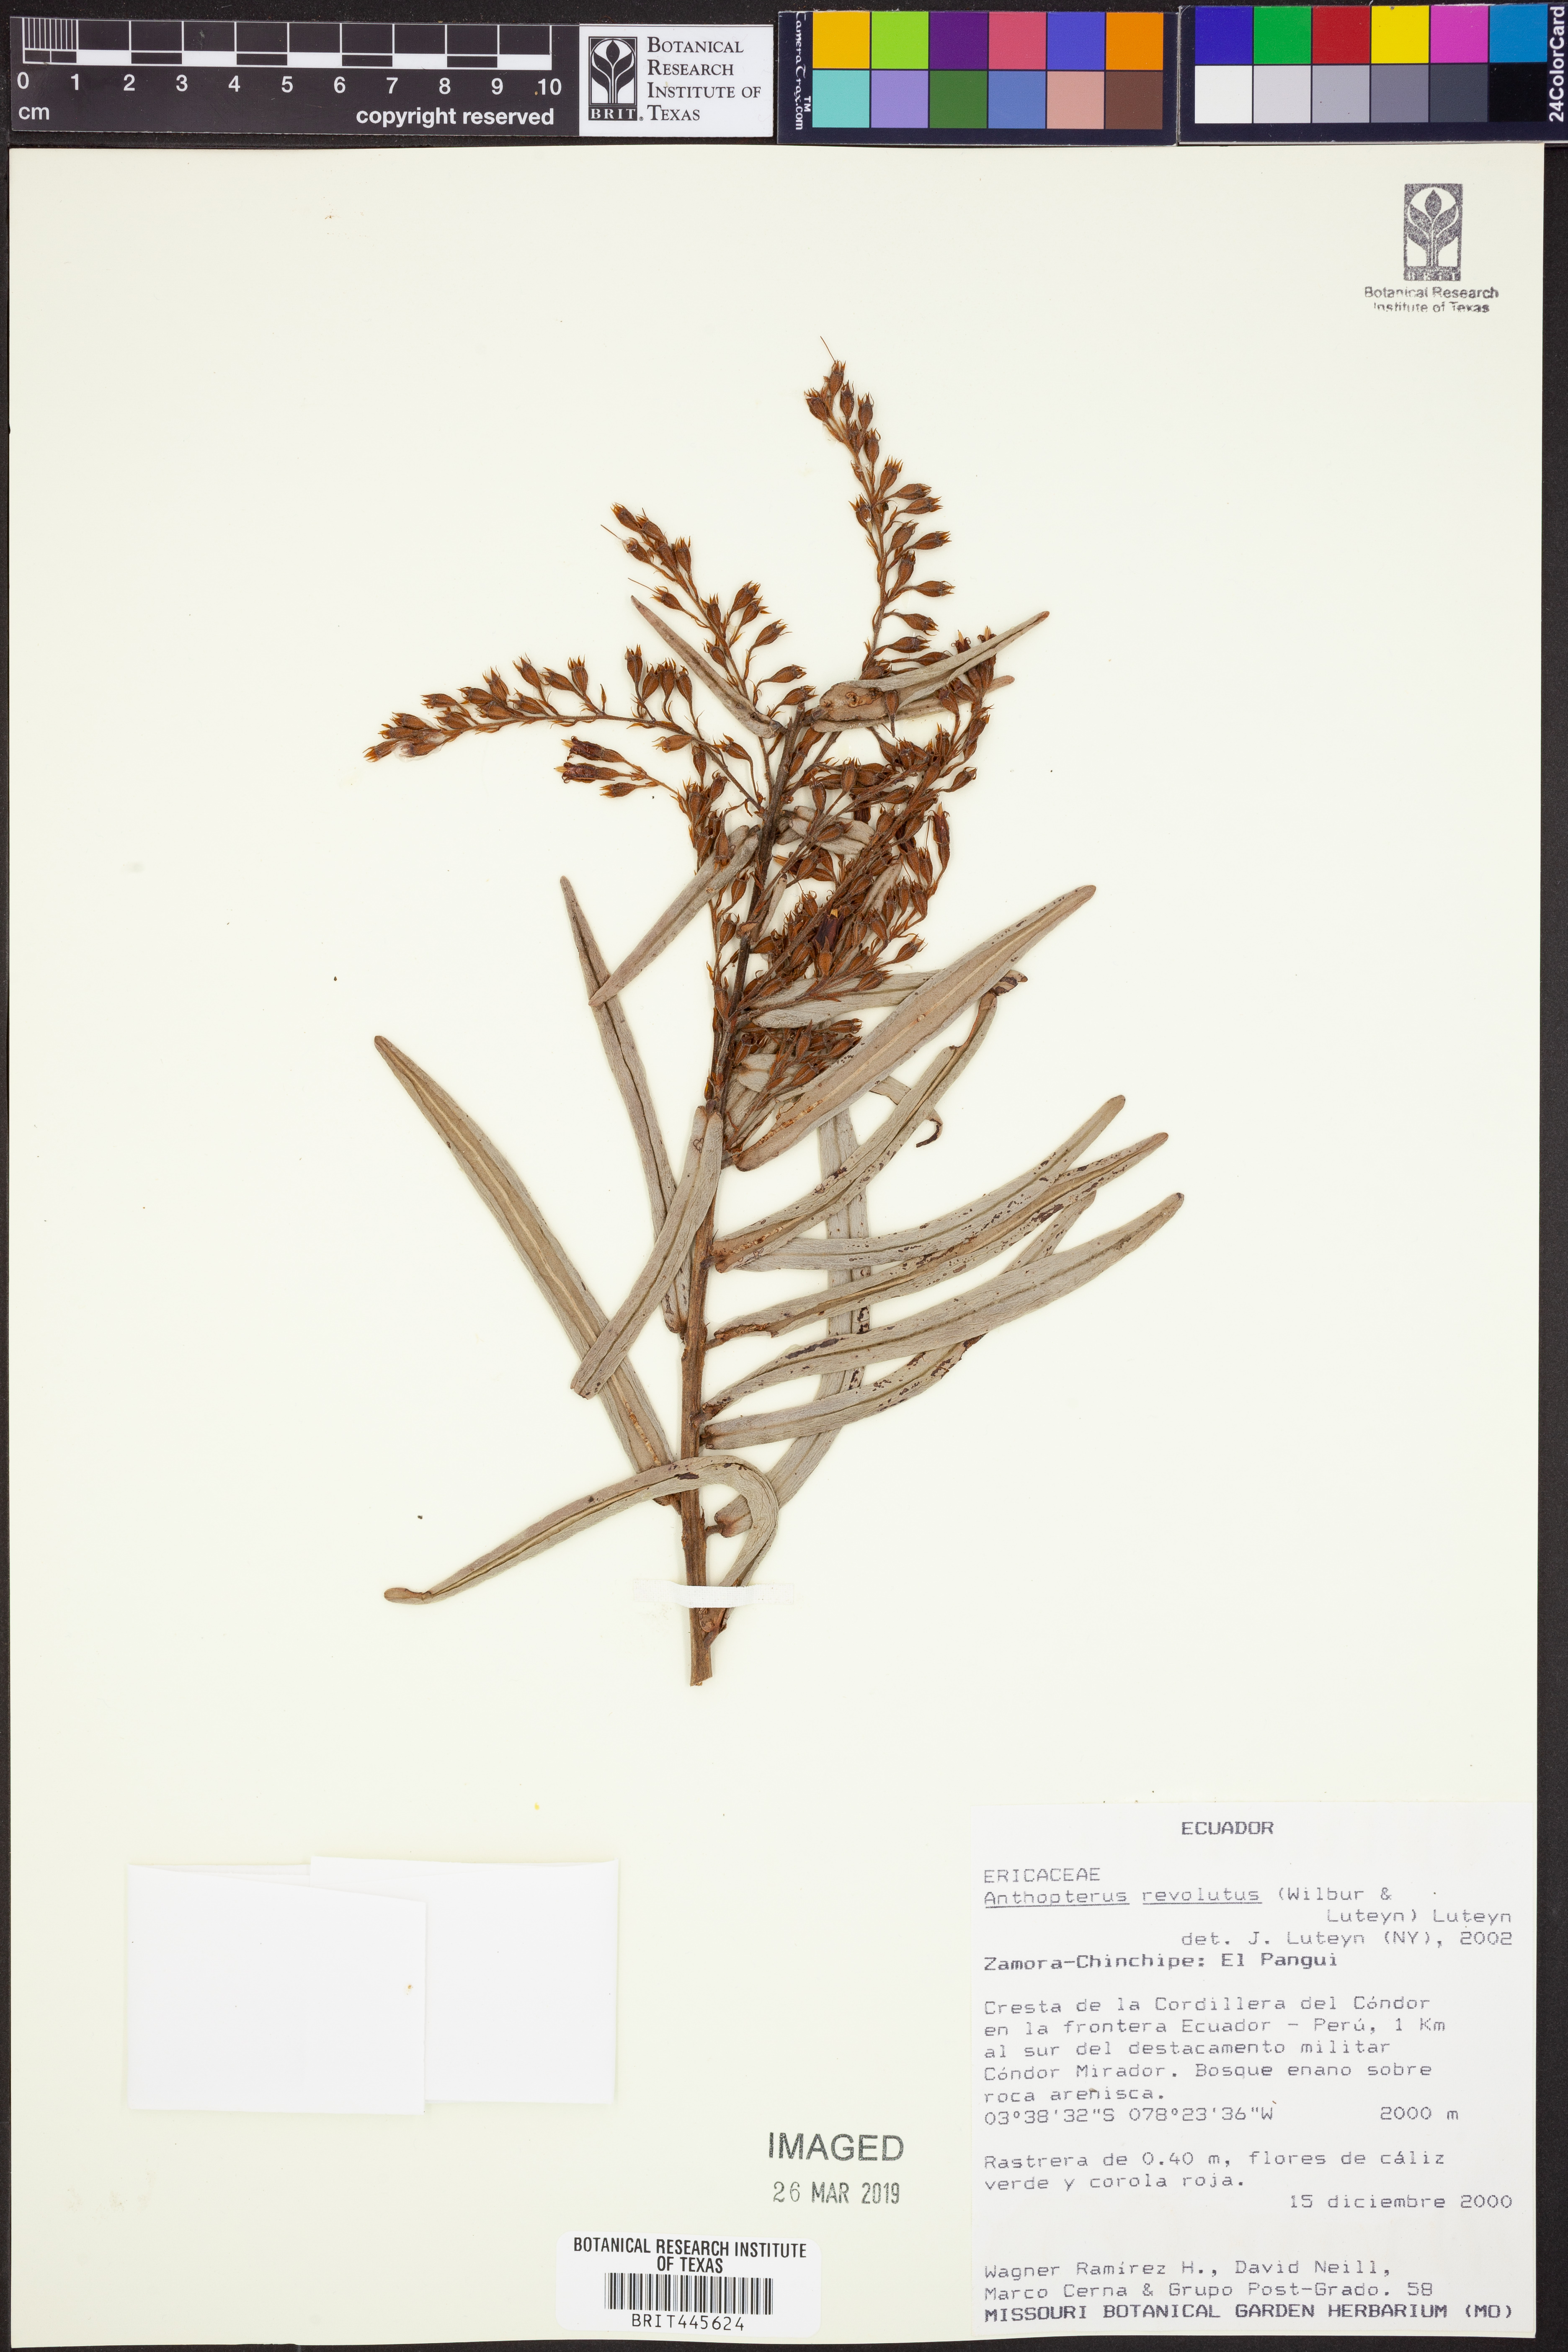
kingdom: Plantae
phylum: Tracheophyta
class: Magnoliopsida
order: Ericales
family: Ericaceae
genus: Anthopterus
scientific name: Anthopterus revolutus
